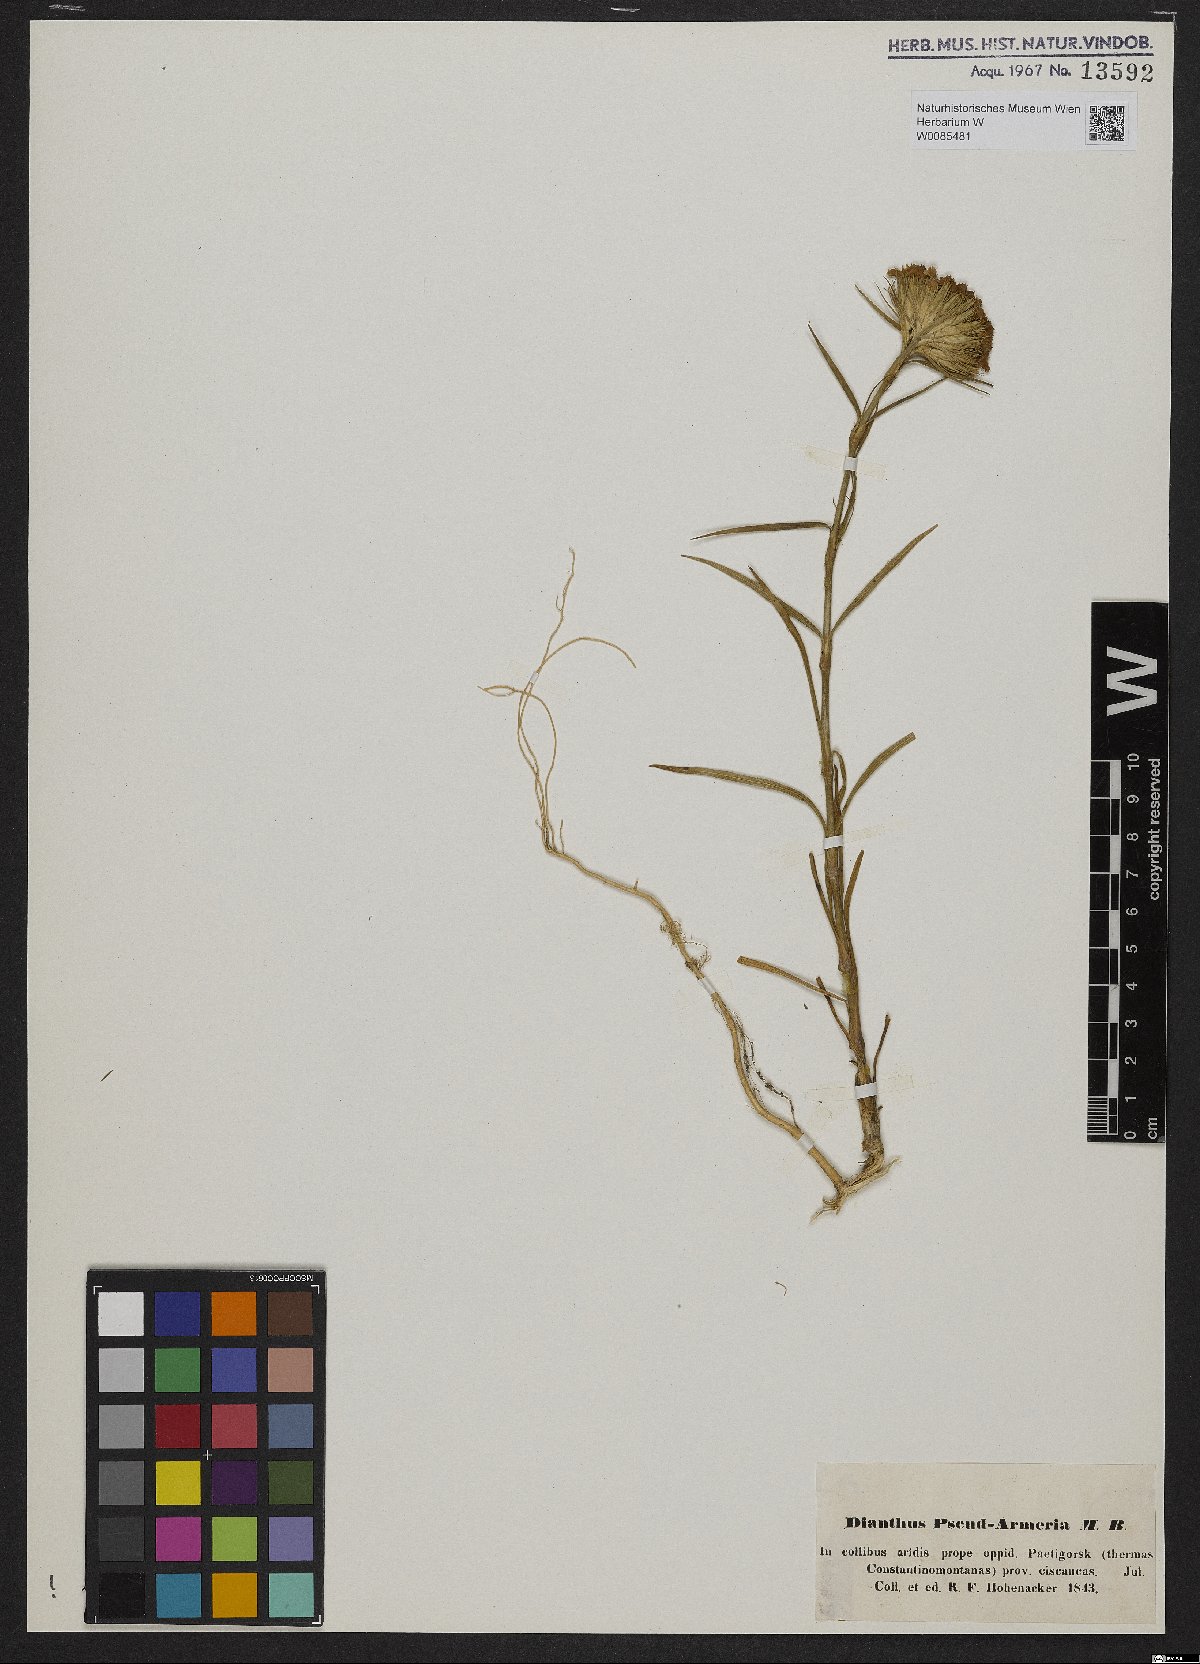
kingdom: Plantae
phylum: Tracheophyta
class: Magnoliopsida
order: Caryophyllales
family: Caryophyllaceae
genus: Dianthus
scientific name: Dianthus pseudarmeria
